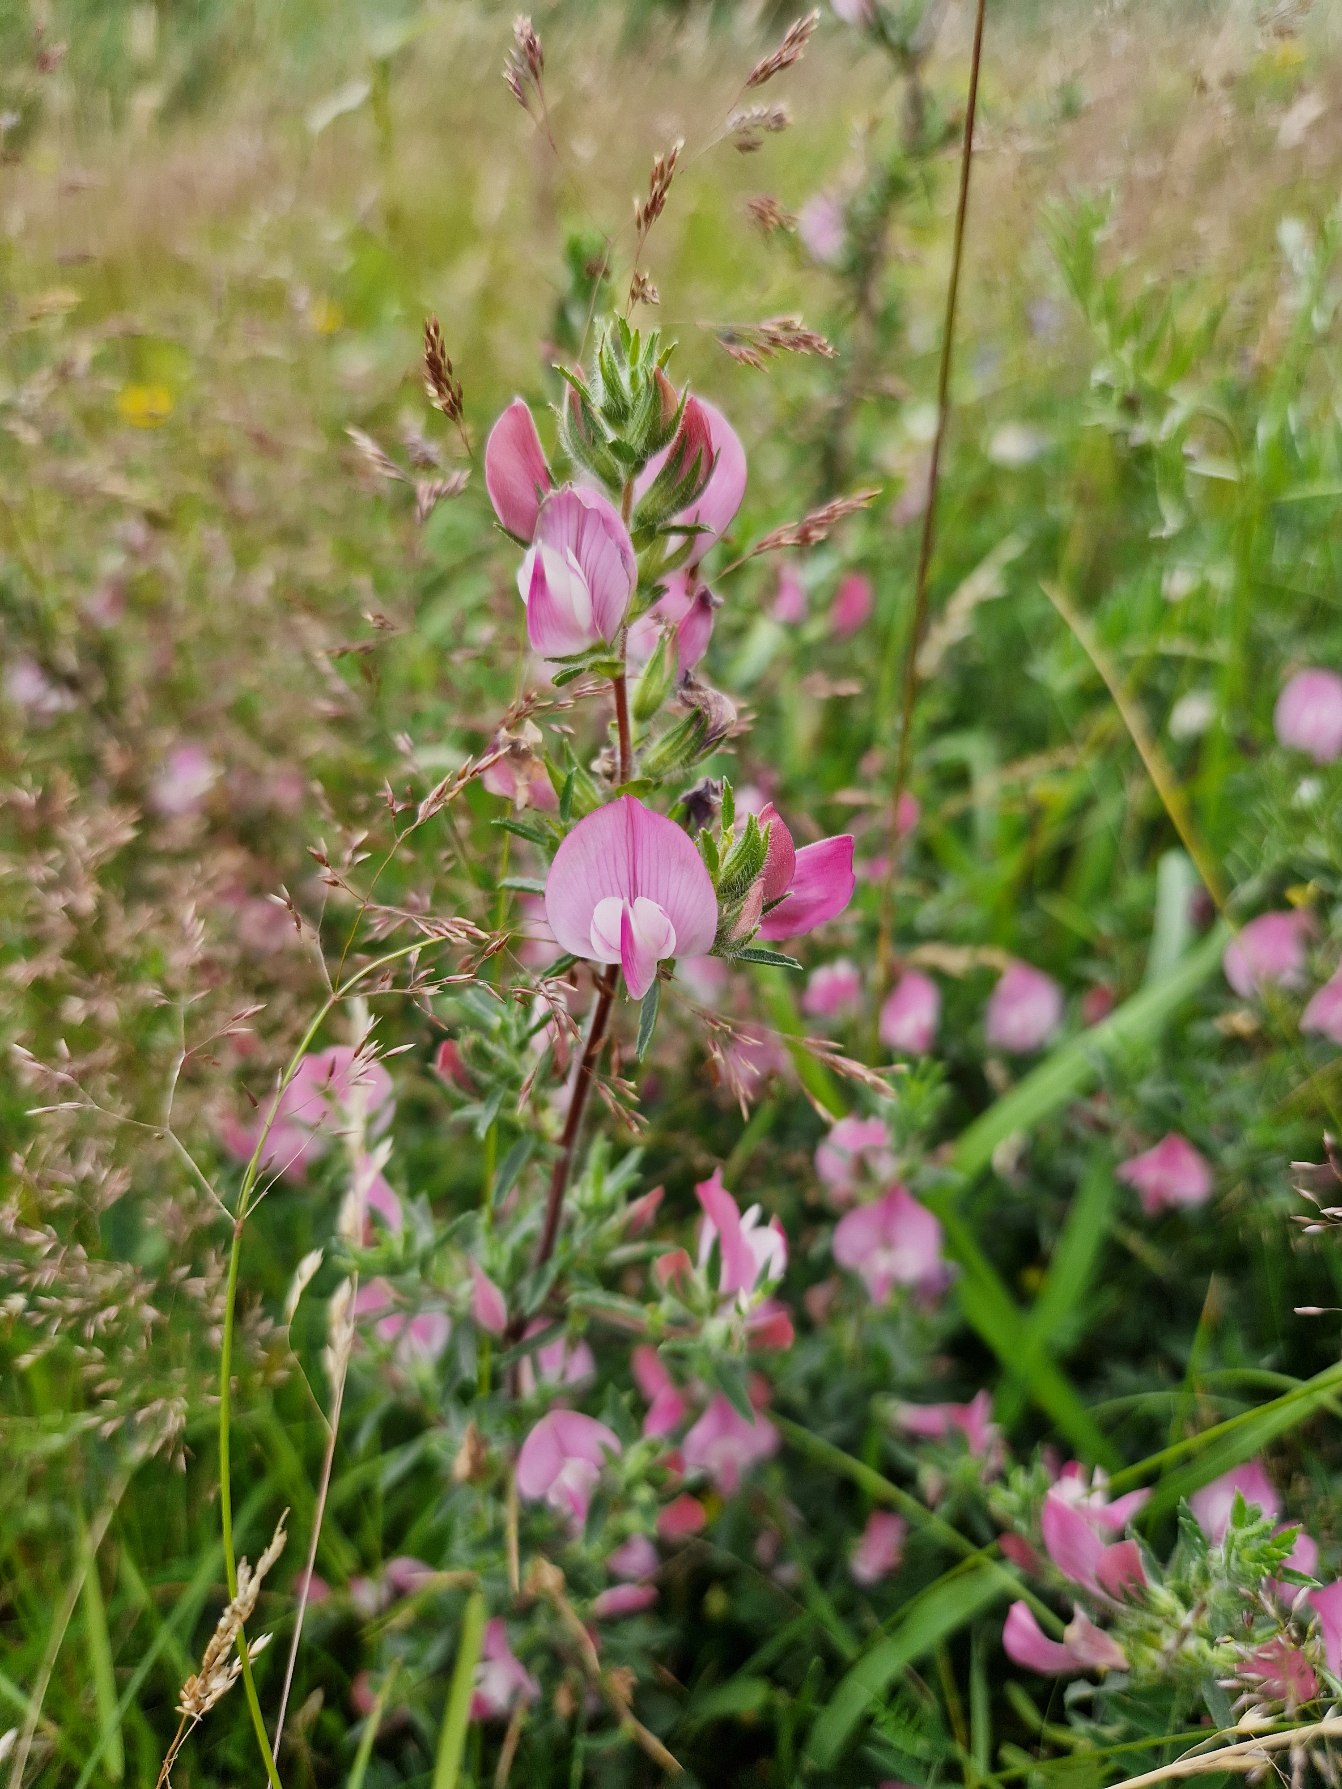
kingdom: Plantae
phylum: Tracheophyta
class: Magnoliopsida
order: Fabales
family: Fabaceae
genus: Ononis
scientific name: Ononis spinosa
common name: Strand-krageklo
